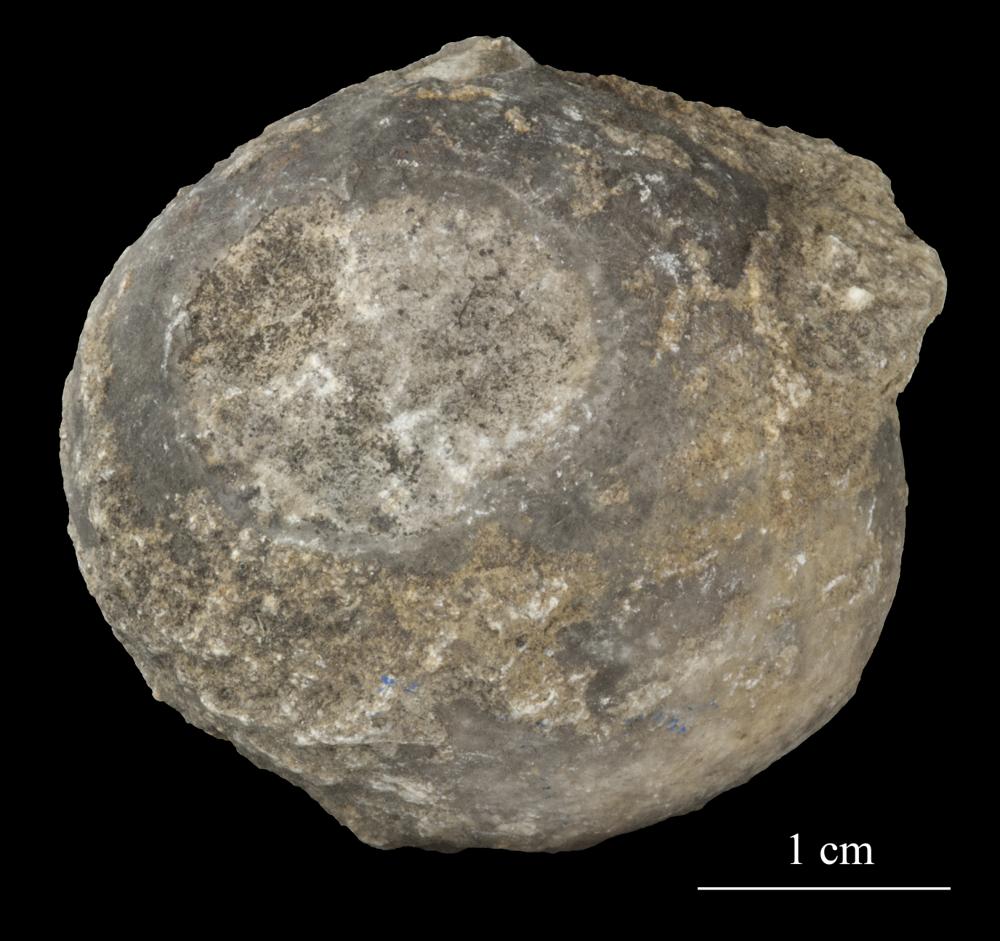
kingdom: Animalia
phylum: Echinodermata
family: Echinosphaeritidae
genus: Echinosphaerites
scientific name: Echinosphaerites Echinus aurantium
